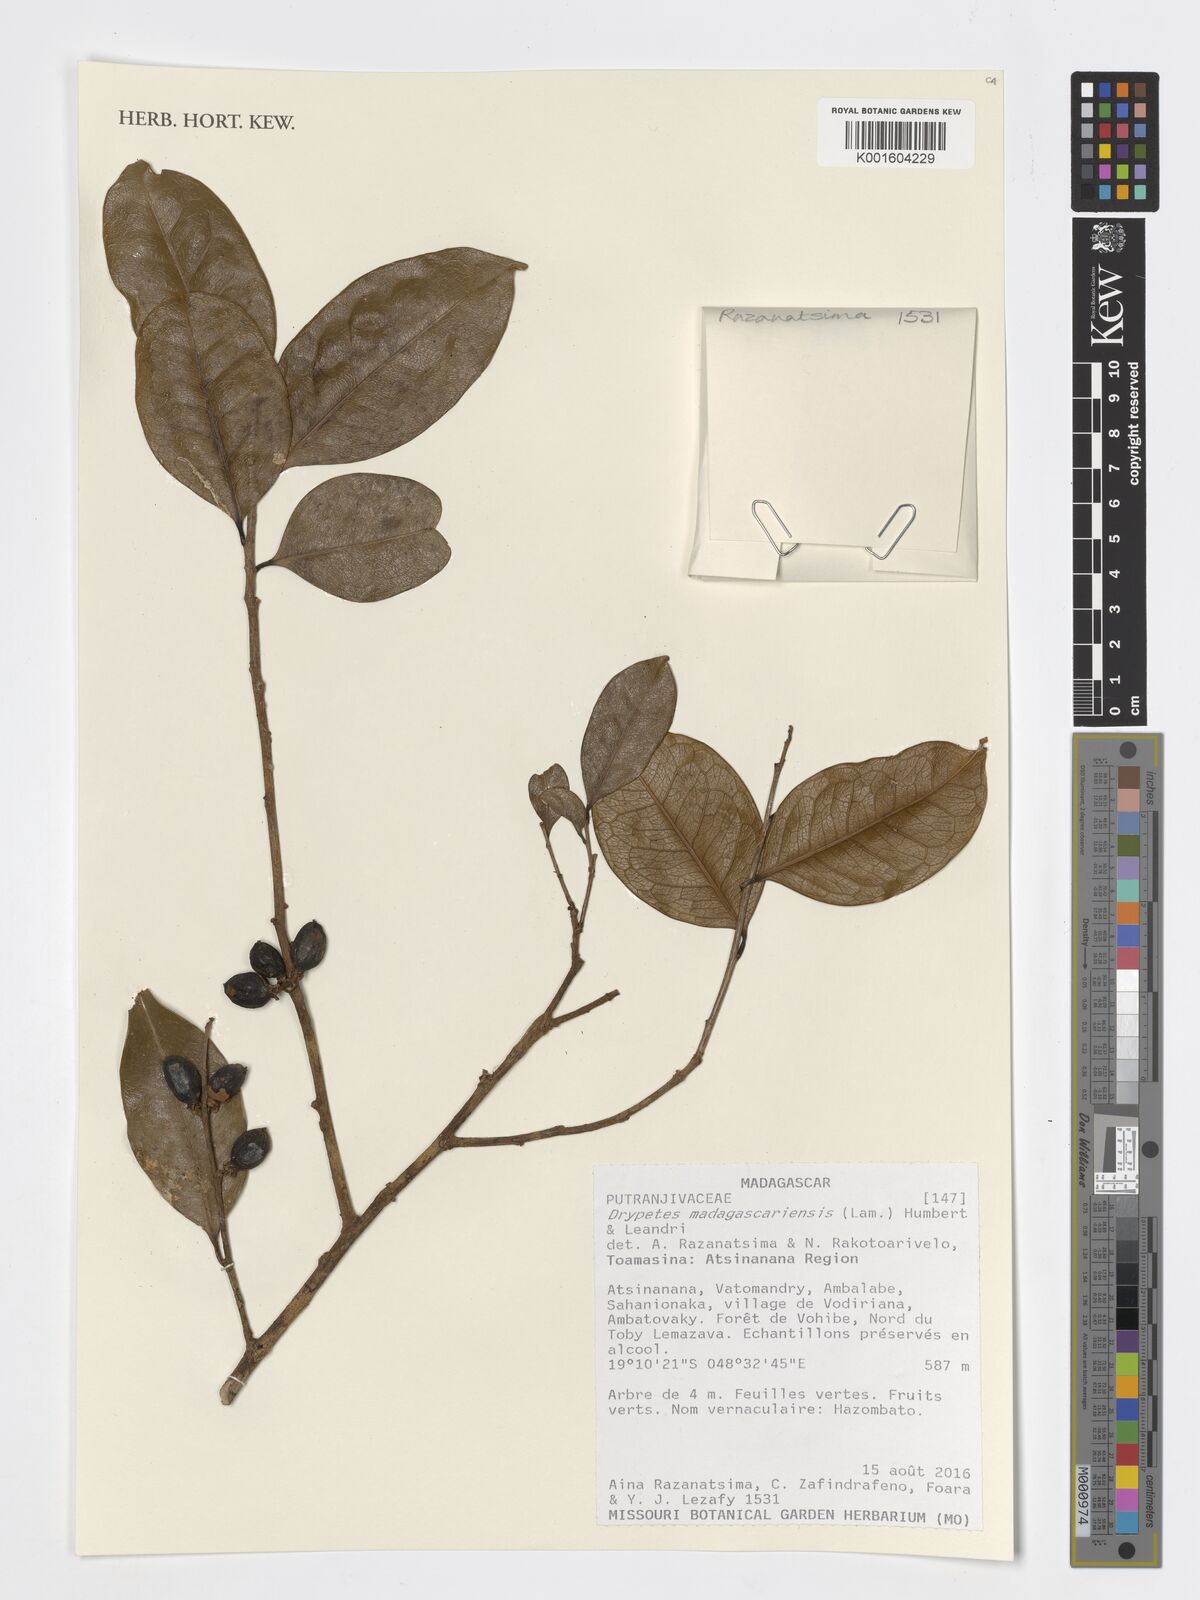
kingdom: Plantae
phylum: Tracheophyta
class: Magnoliopsida
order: Malpighiales
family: Putranjivaceae
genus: Drypetes
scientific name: Drypetes madagascariensis
